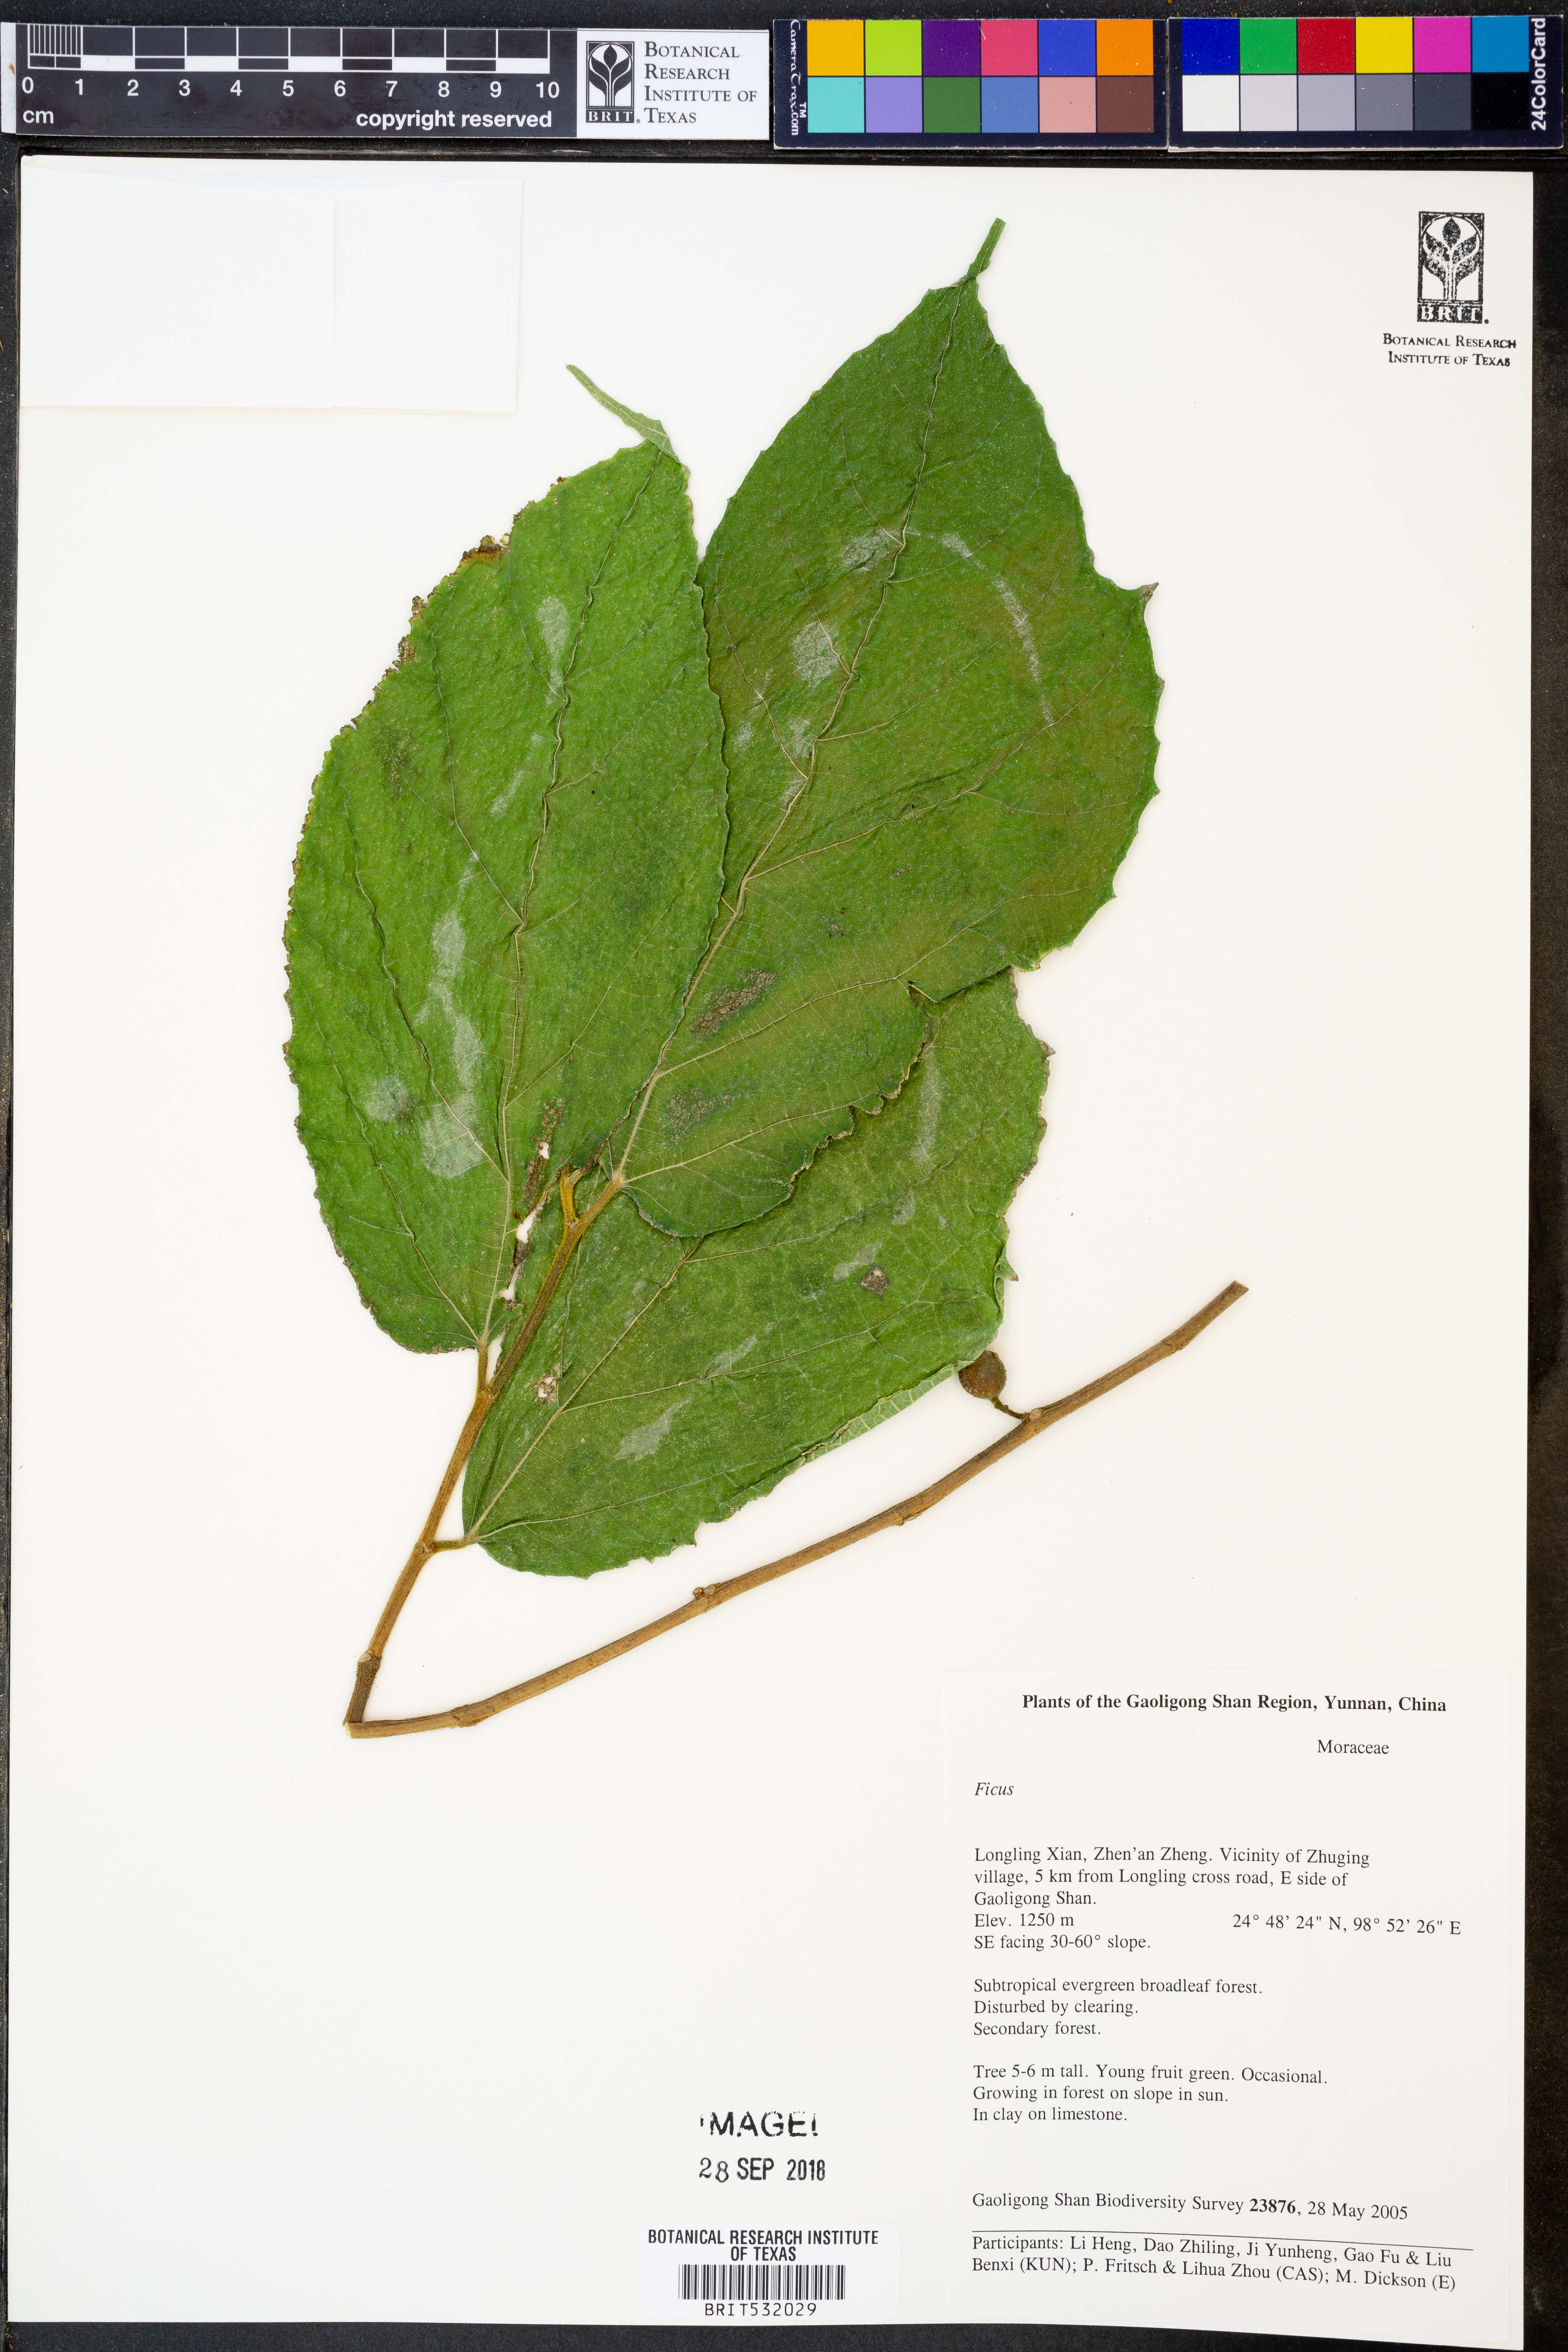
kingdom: Plantae
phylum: Tracheophyta
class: Magnoliopsida
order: Rosales
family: Moraceae
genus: Ficus
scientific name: Ficus
